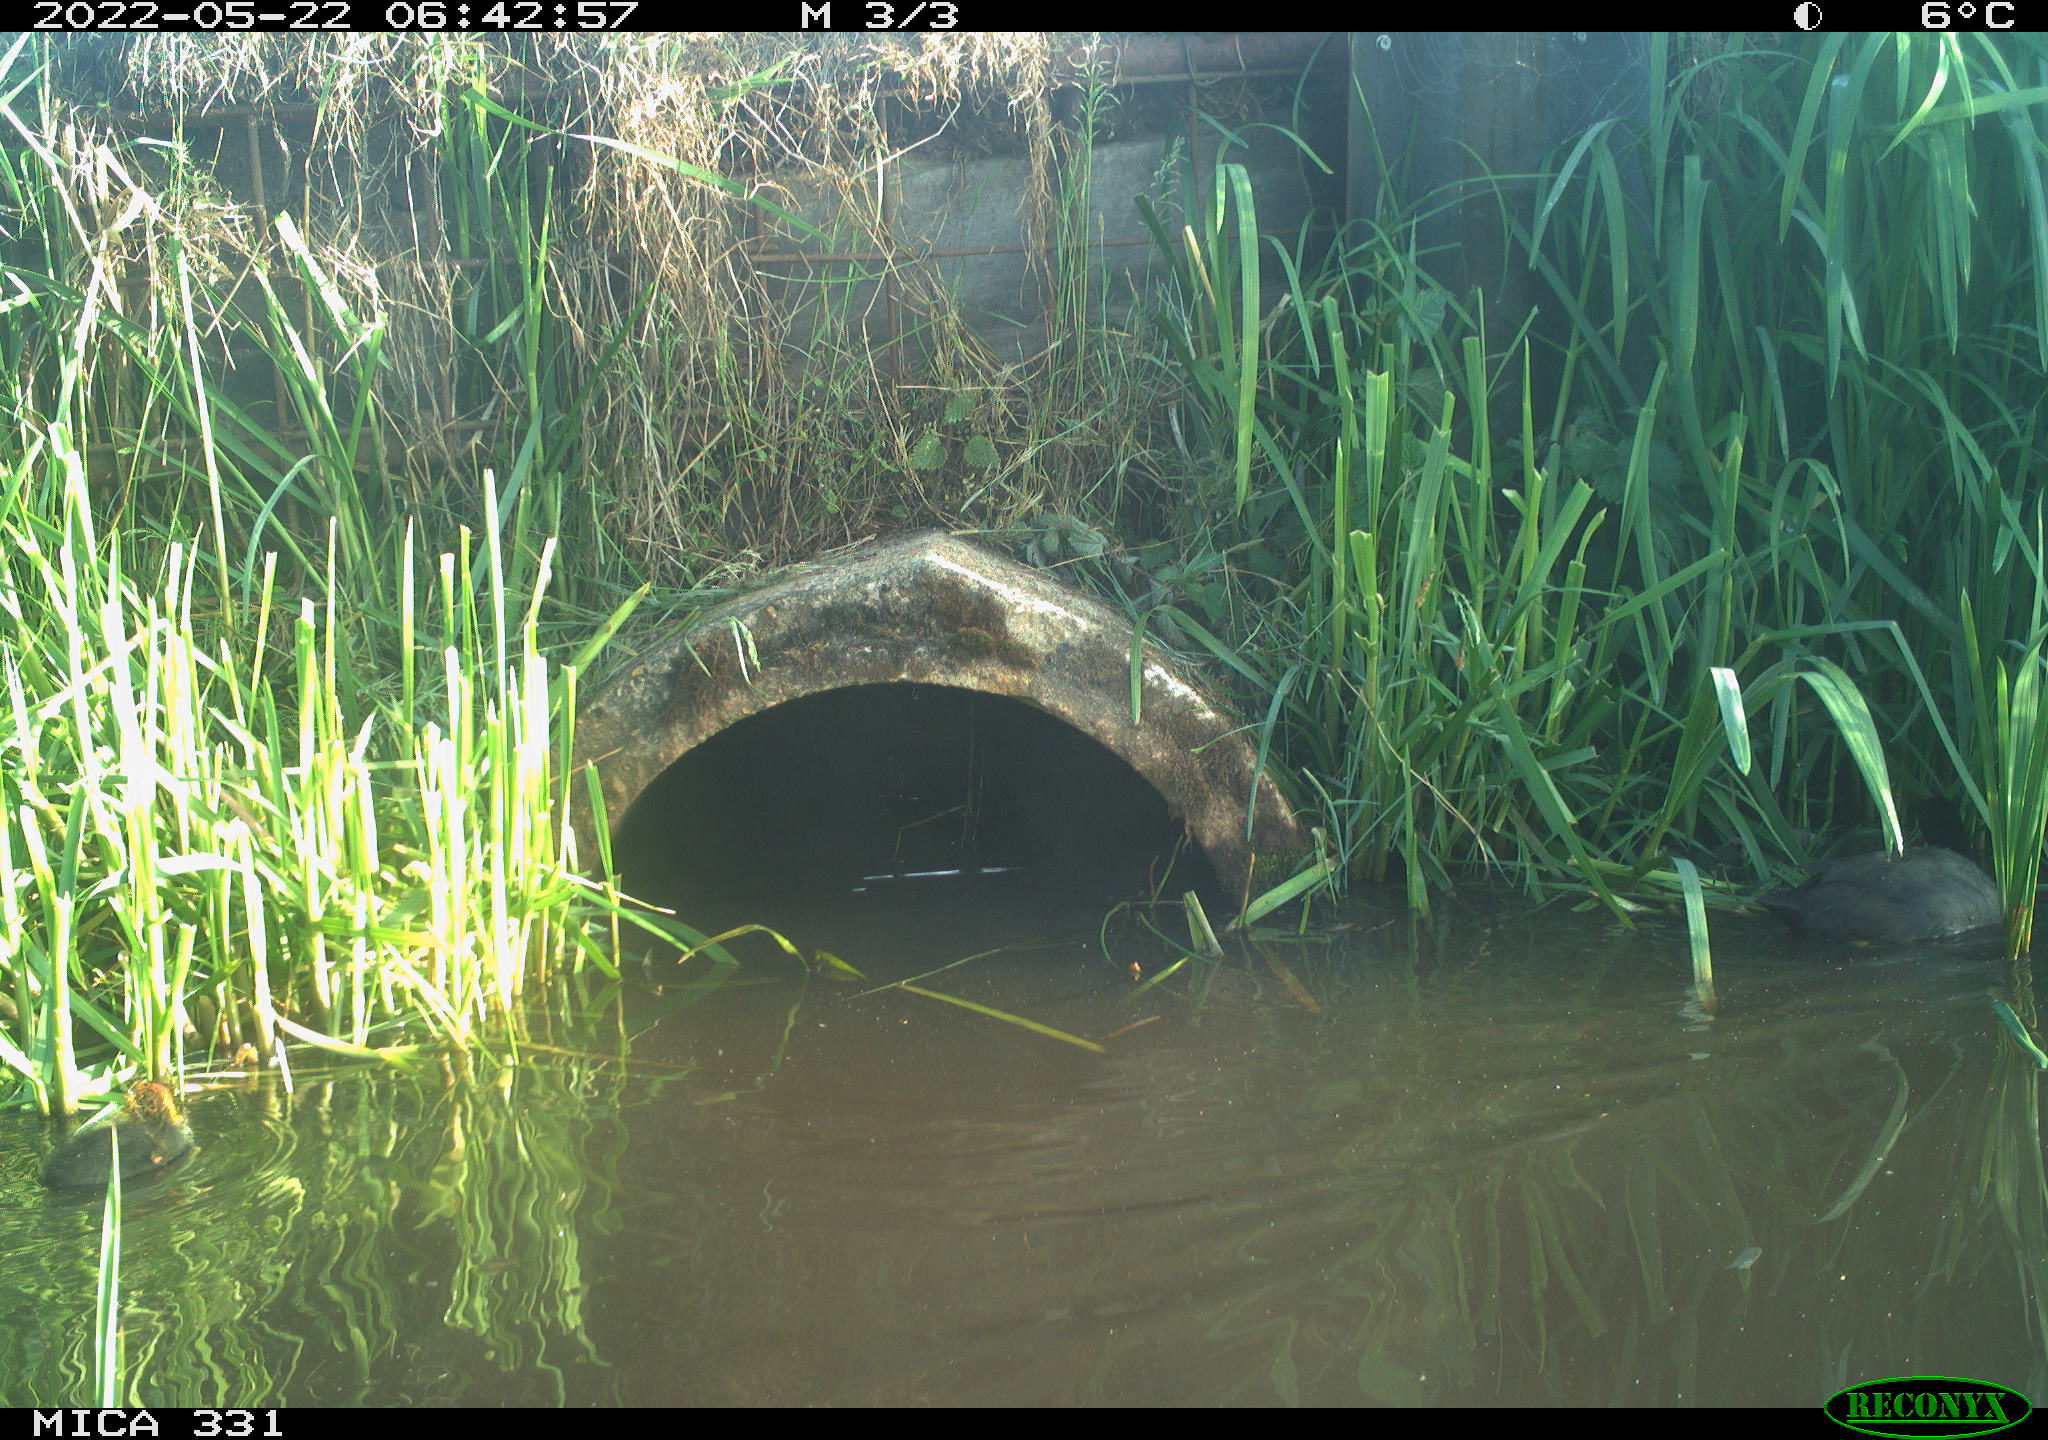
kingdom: Animalia
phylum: Chordata
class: Aves
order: Gruiformes
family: Rallidae
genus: Fulica
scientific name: Fulica atra
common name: Eurasian coot
